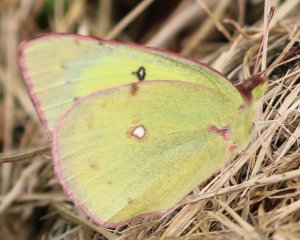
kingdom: Animalia
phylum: Arthropoda
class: Insecta
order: Lepidoptera
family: Pieridae
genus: Colias
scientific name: Colias philodice
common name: Clouded Sulphur
